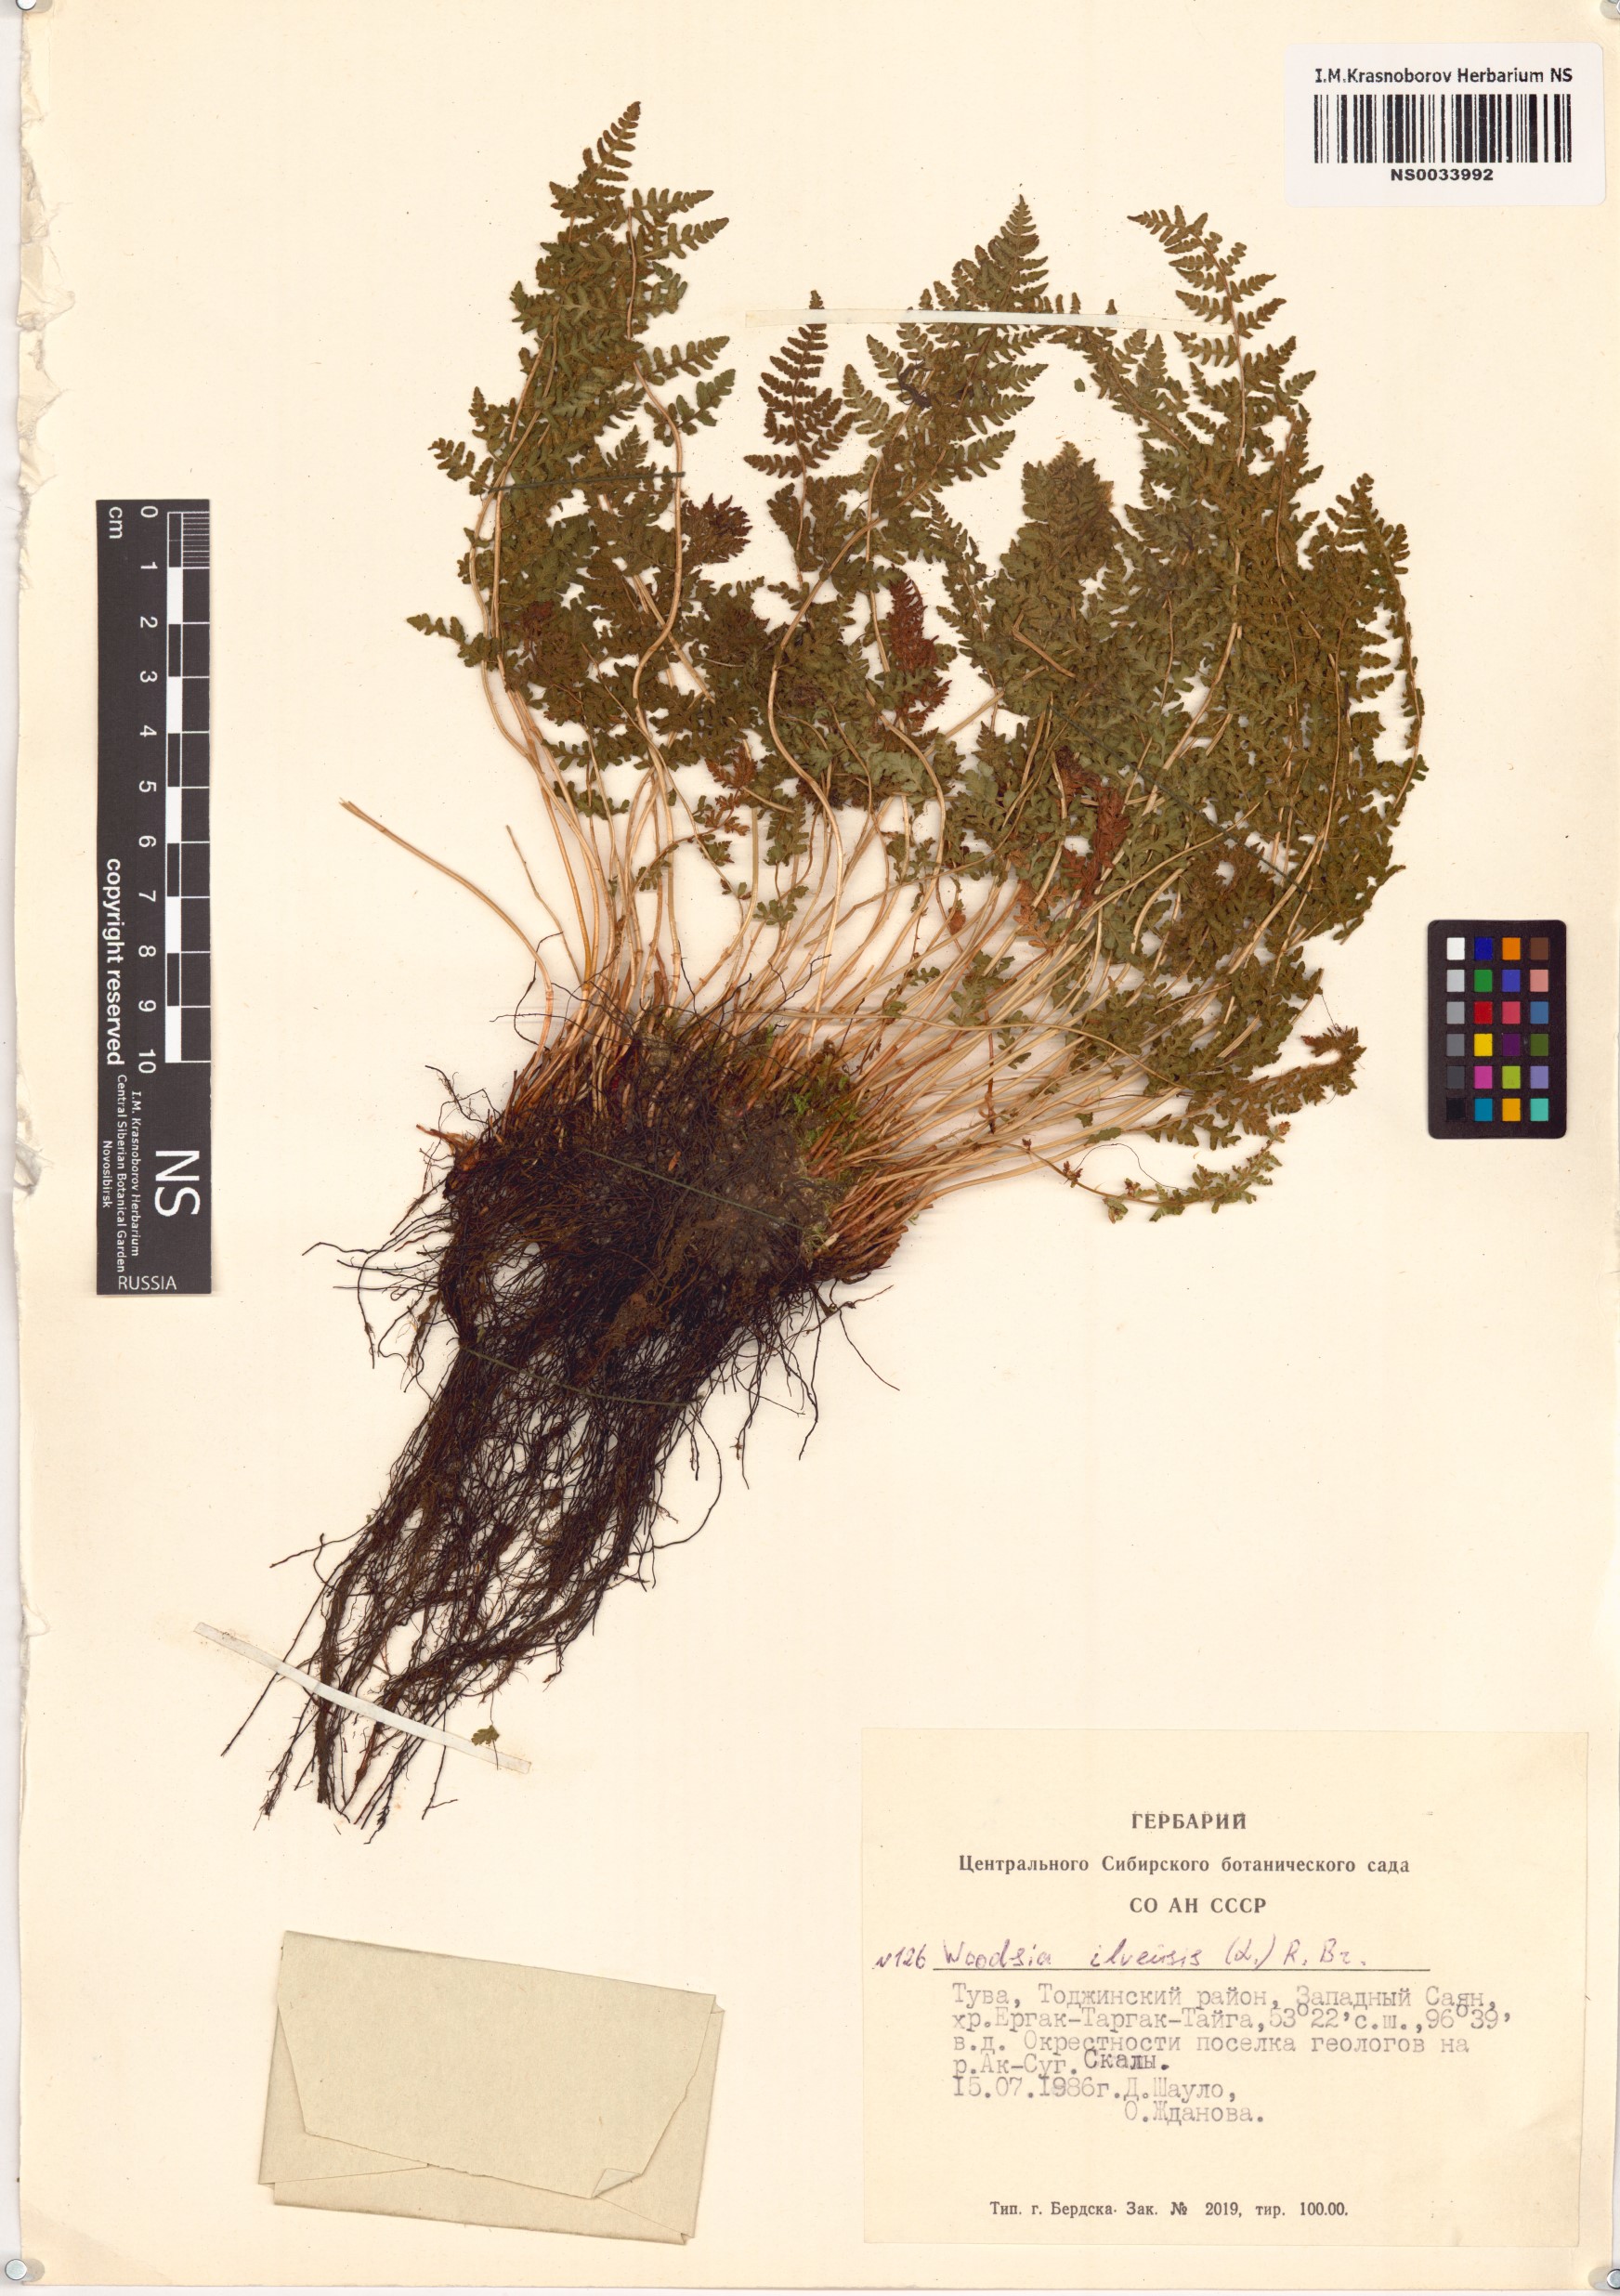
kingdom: Plantae
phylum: Tracheophyta
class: Polypodiopsida
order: Polypodiales
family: Woodsiaceae
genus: Woodsia
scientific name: Woodsia ilvensis
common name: Fragrant woodsia
